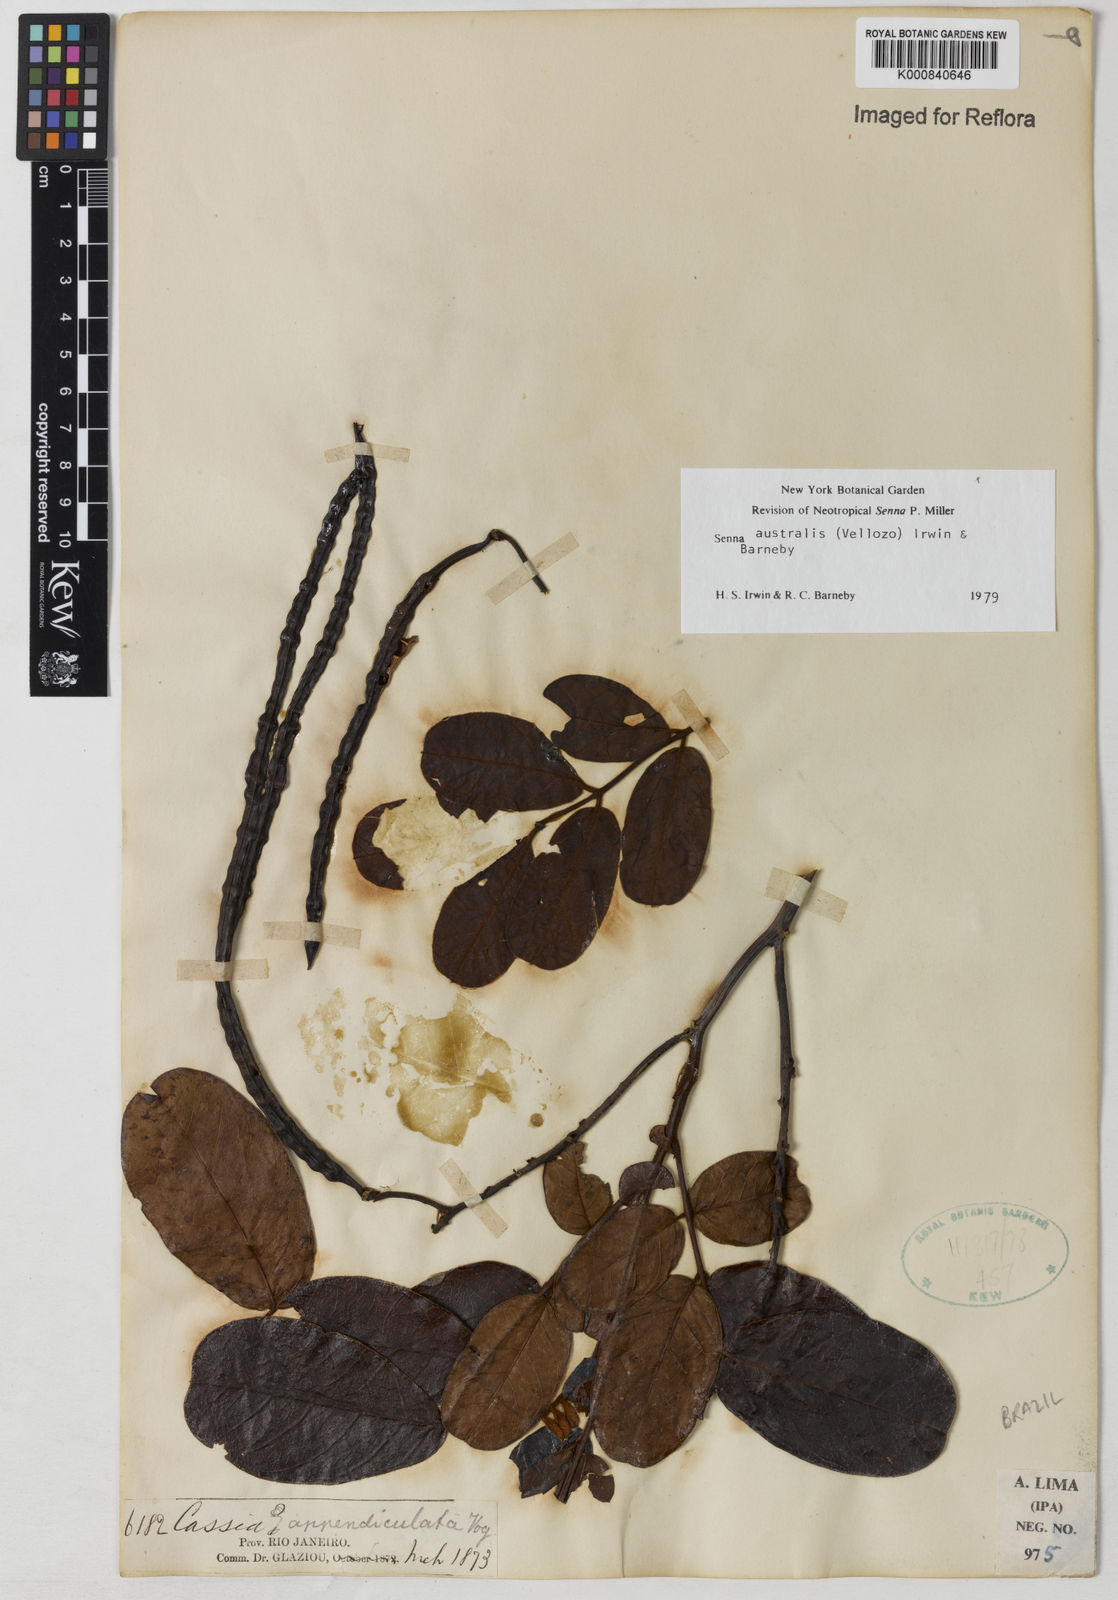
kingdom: Plantae
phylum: Tracheophyta
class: Magnoliopsida
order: Fabales
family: Fabaceae
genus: Senna
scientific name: Senna appendiculata
